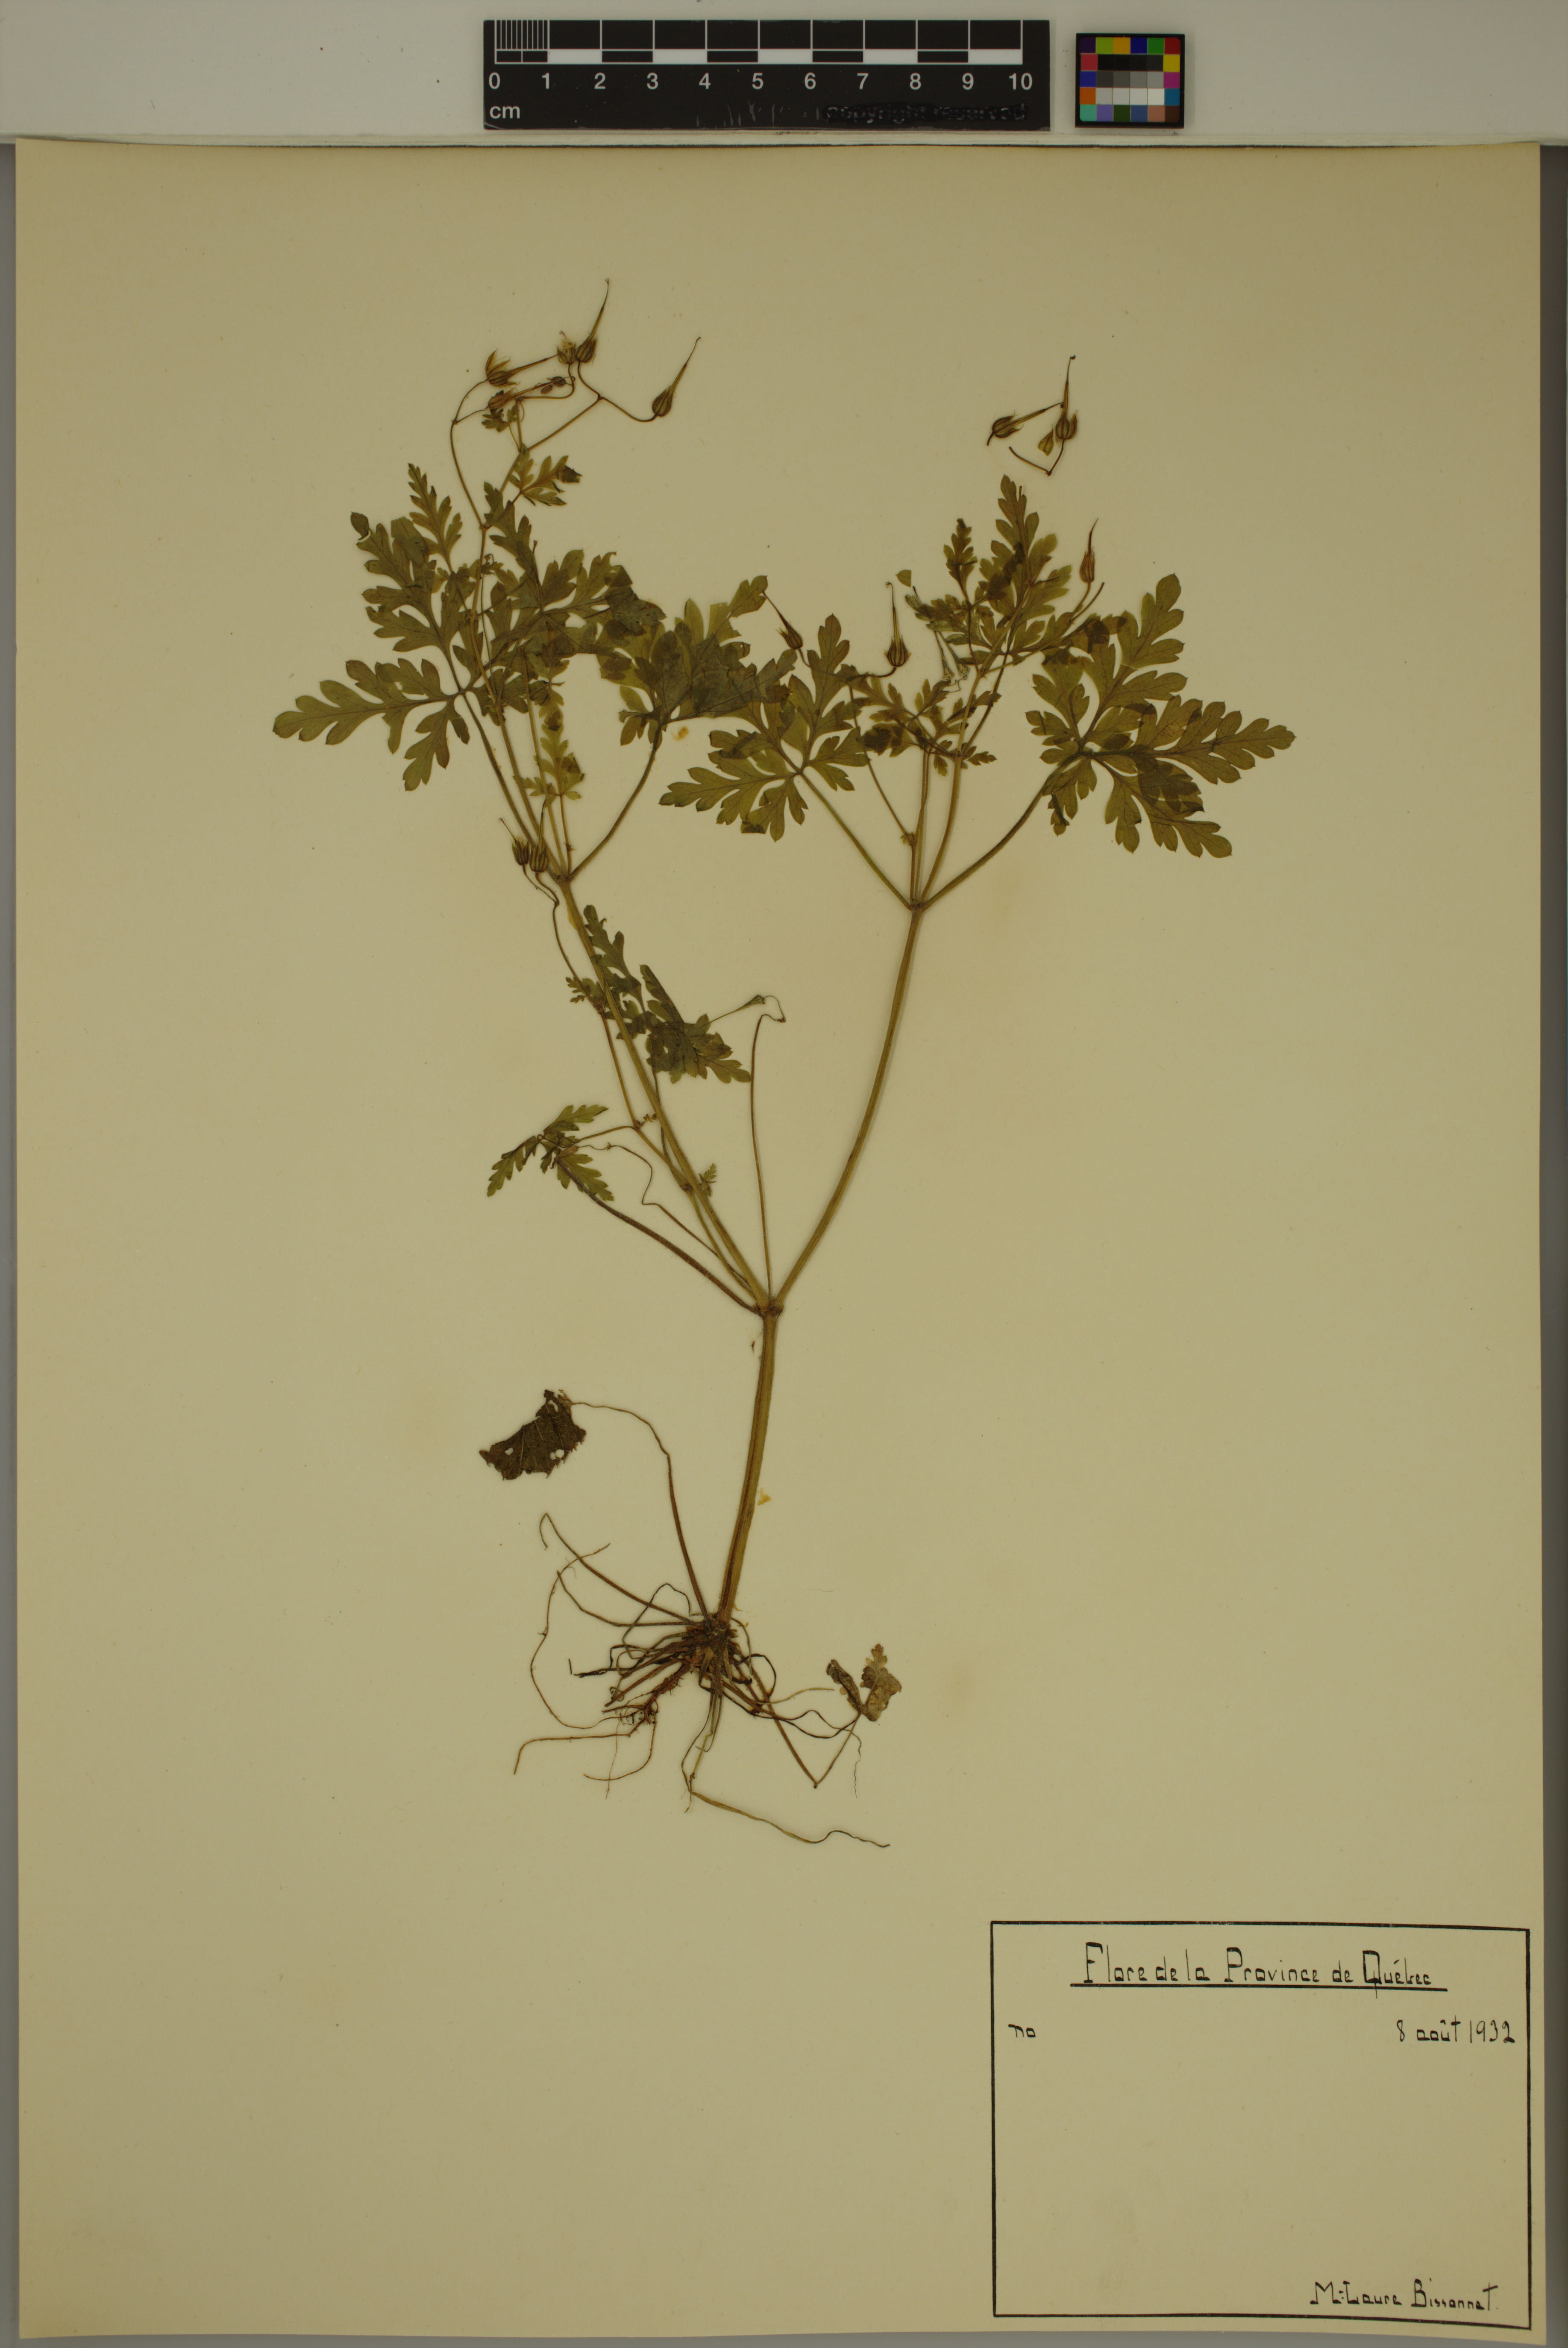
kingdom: Plantae
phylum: Tracheophyta
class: Magnoliopsida
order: Geraniales
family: Geraniaceae
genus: Geranium
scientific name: Geranium robertianum
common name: Herb-robert
